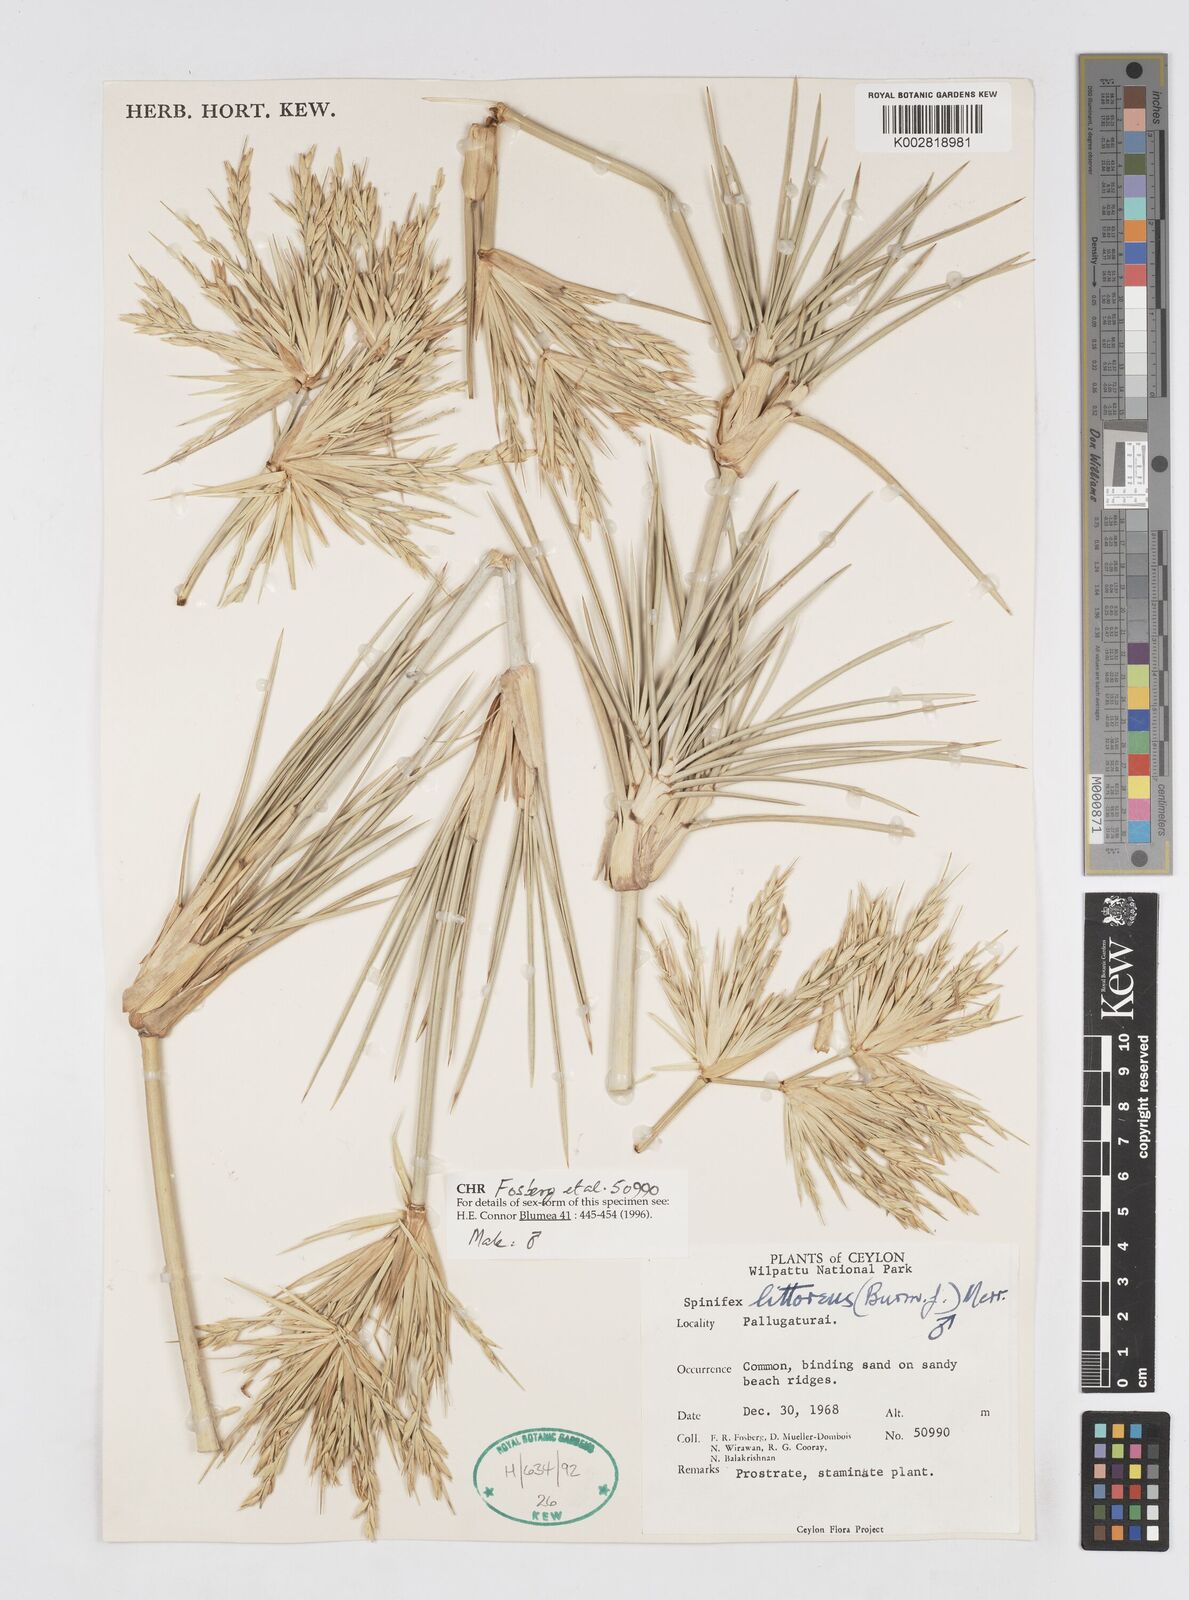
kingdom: Plantae
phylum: Tracheophyta
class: Liliopsida
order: Poales
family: Poaceae
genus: Spinifex
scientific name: Spinifex littoreus
